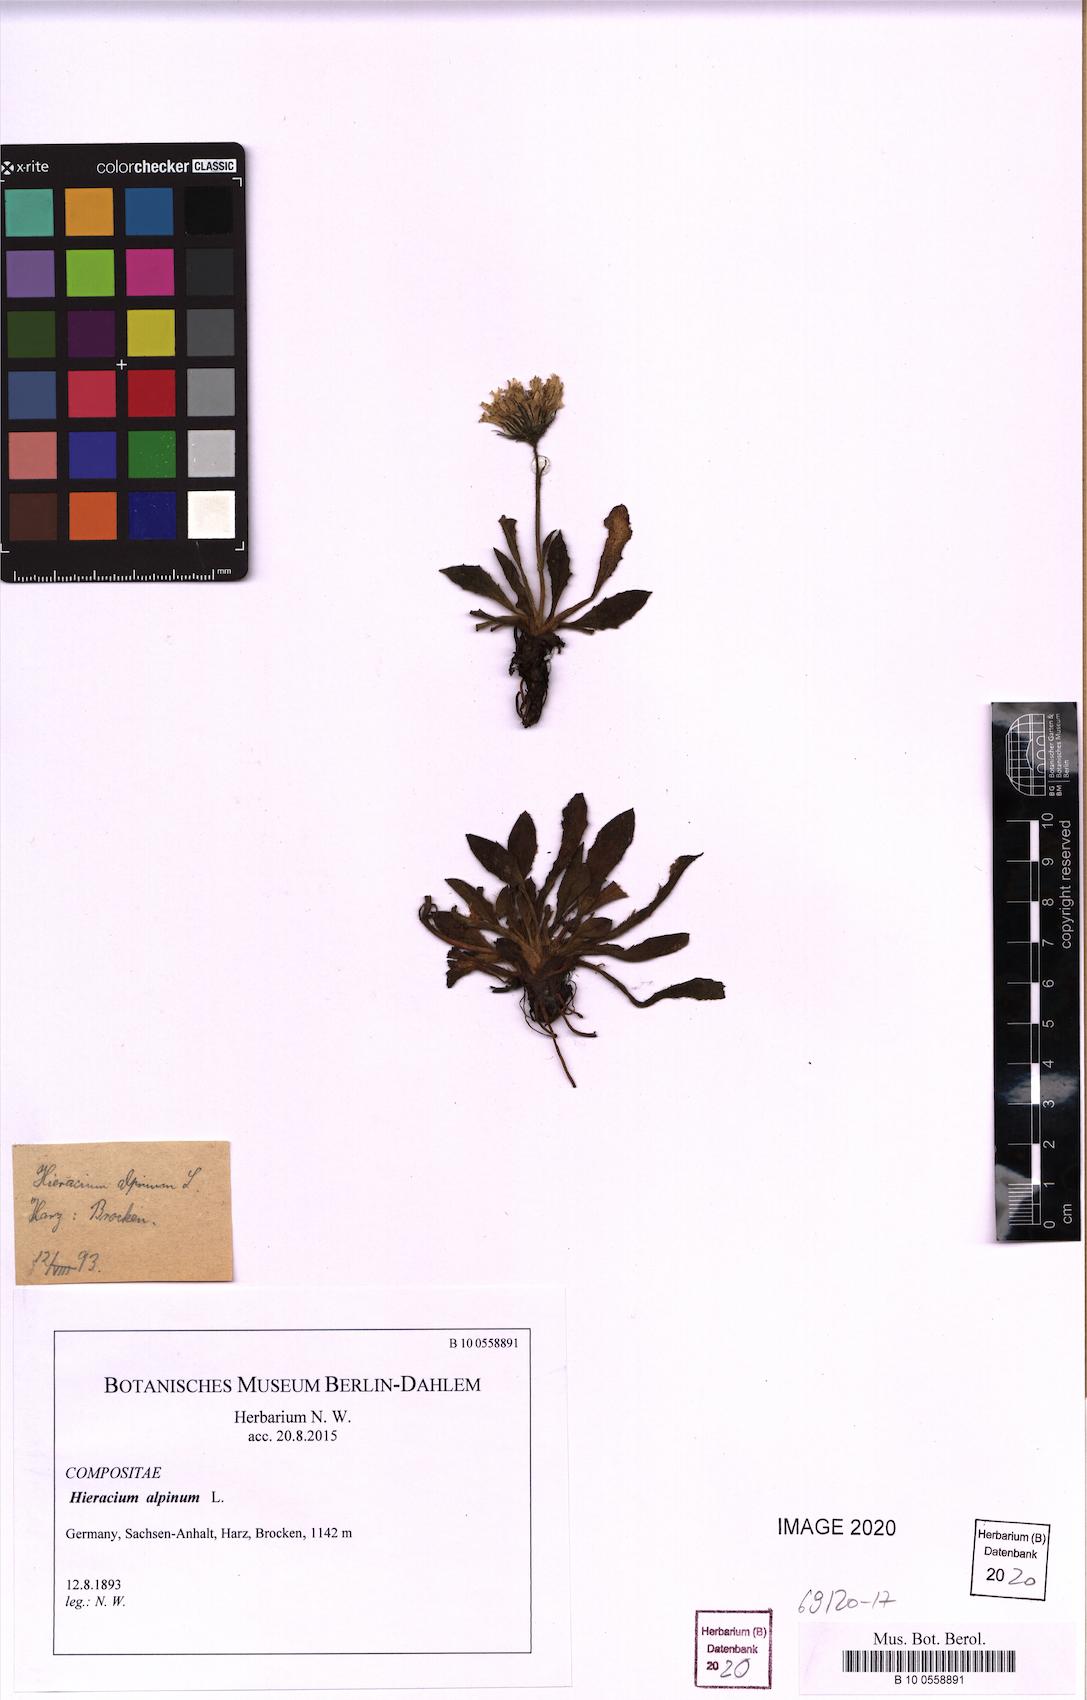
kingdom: Plantae
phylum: Tracheophyta
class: Magnoliopsida
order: Asterales
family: Asteraceae
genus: Hieracium
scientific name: Hieracium alpinum
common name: Alpine hawkweed
